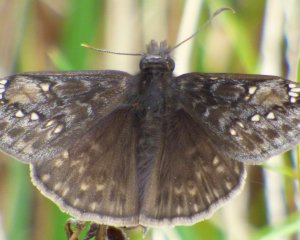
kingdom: Animalia
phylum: Arthropoda
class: Insecta
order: Lepidoptera
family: Hesperiidae
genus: Gesta
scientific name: Gesta
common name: Horace's Duskywing
